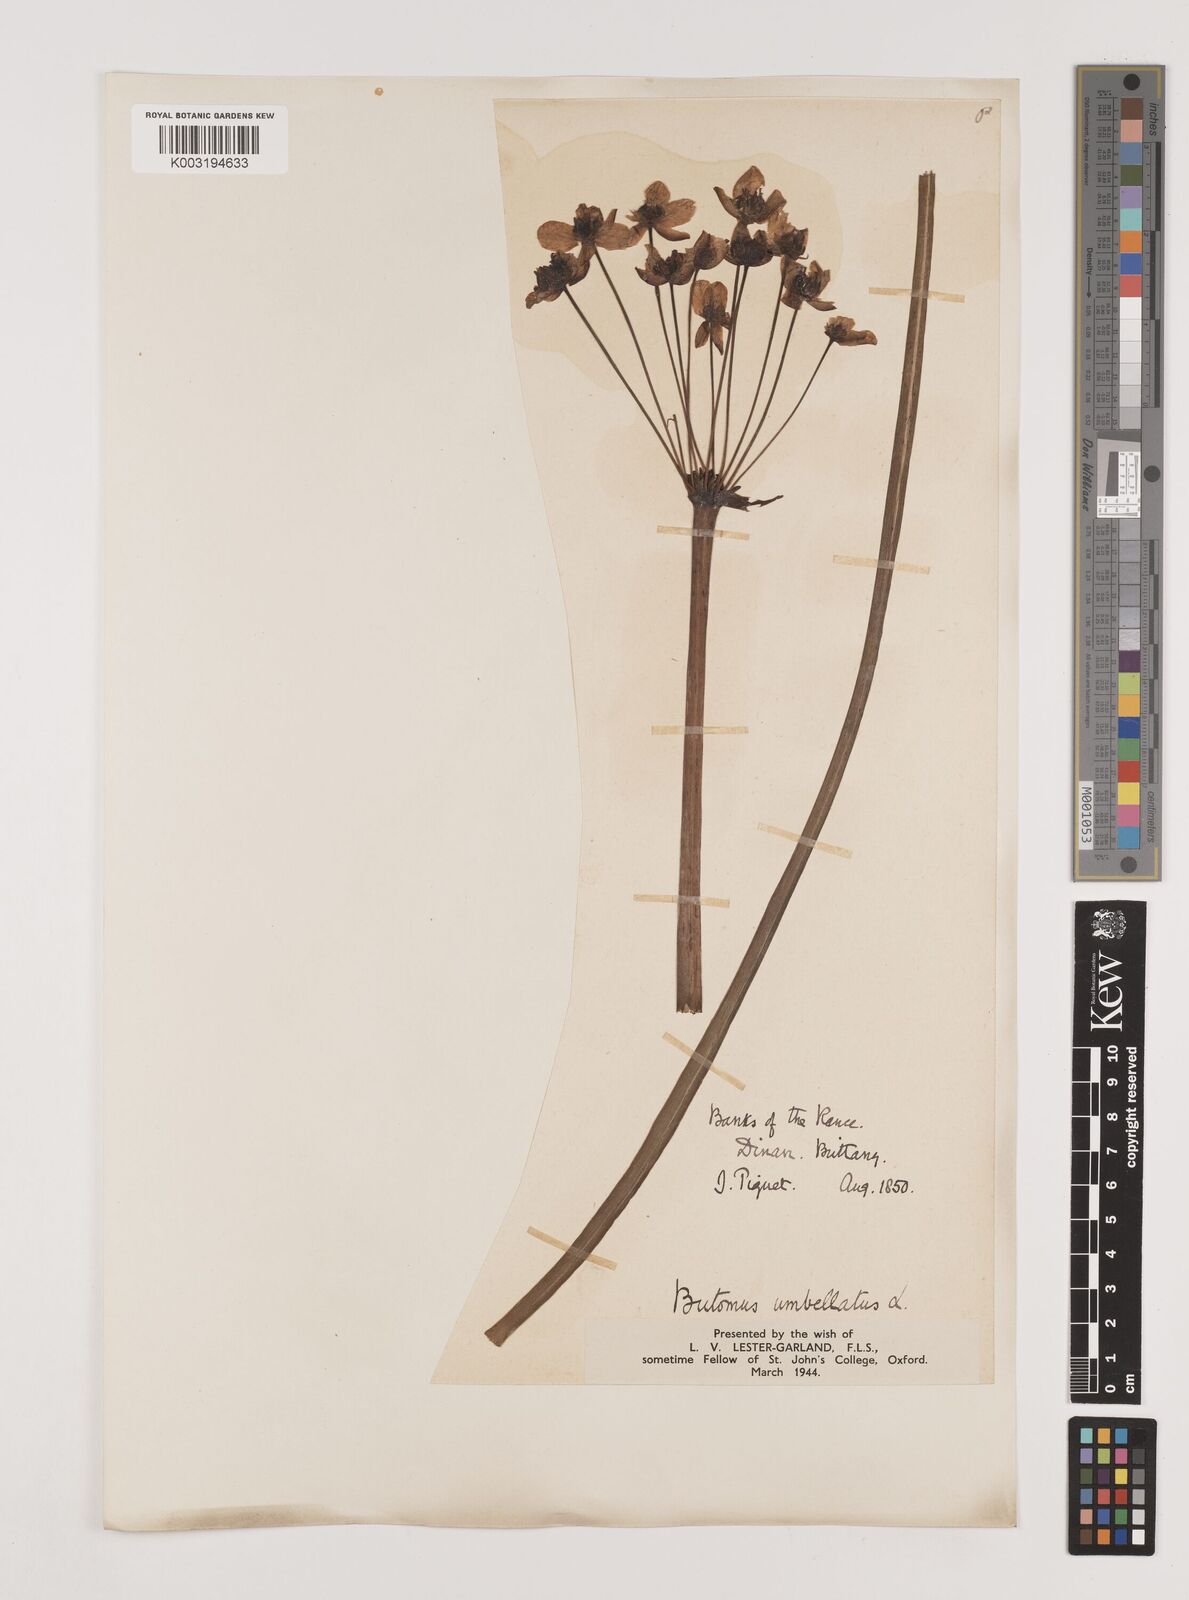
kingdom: Plantae
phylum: Tracheophyta
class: Liliopsida
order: Alismatales
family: Butomaceae
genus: Butomus
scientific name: Butomus umbellatus
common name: Flowering-rush
